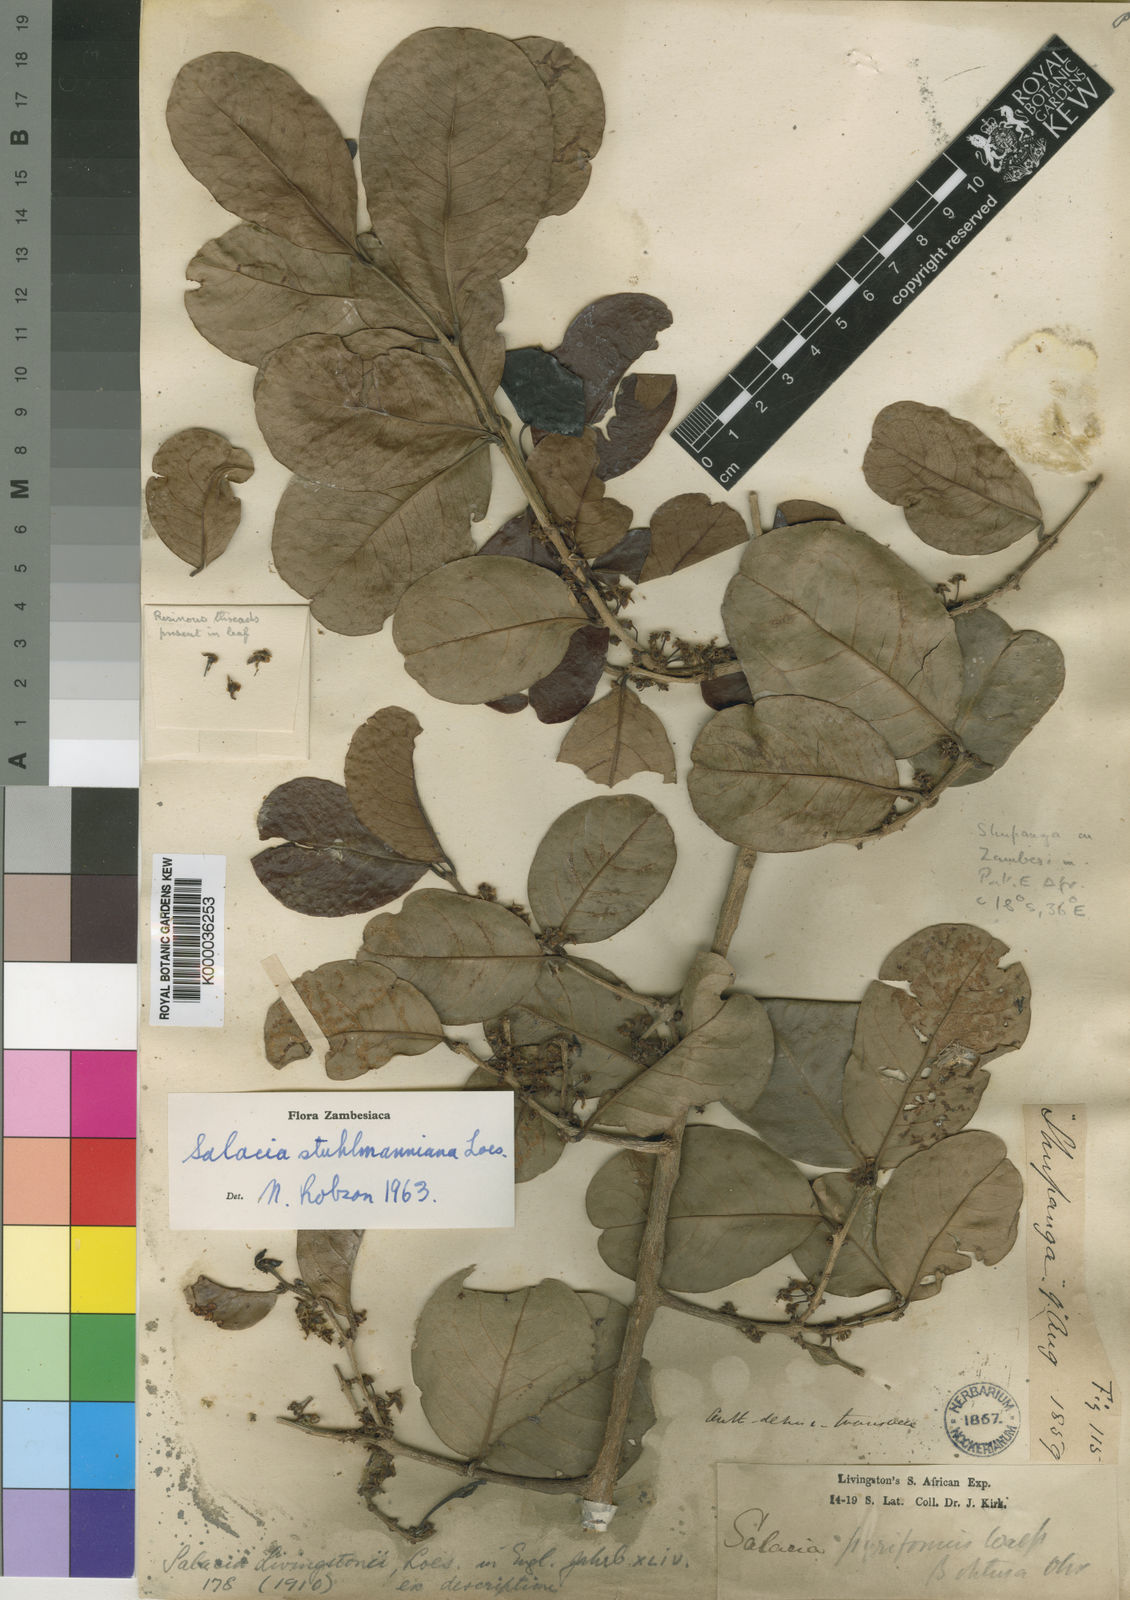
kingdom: Plantae
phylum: Tracheophyta
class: Magnoliopsida
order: Celastrales
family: Celastraceae
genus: Salacia
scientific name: Salacia stuhlmanniana
